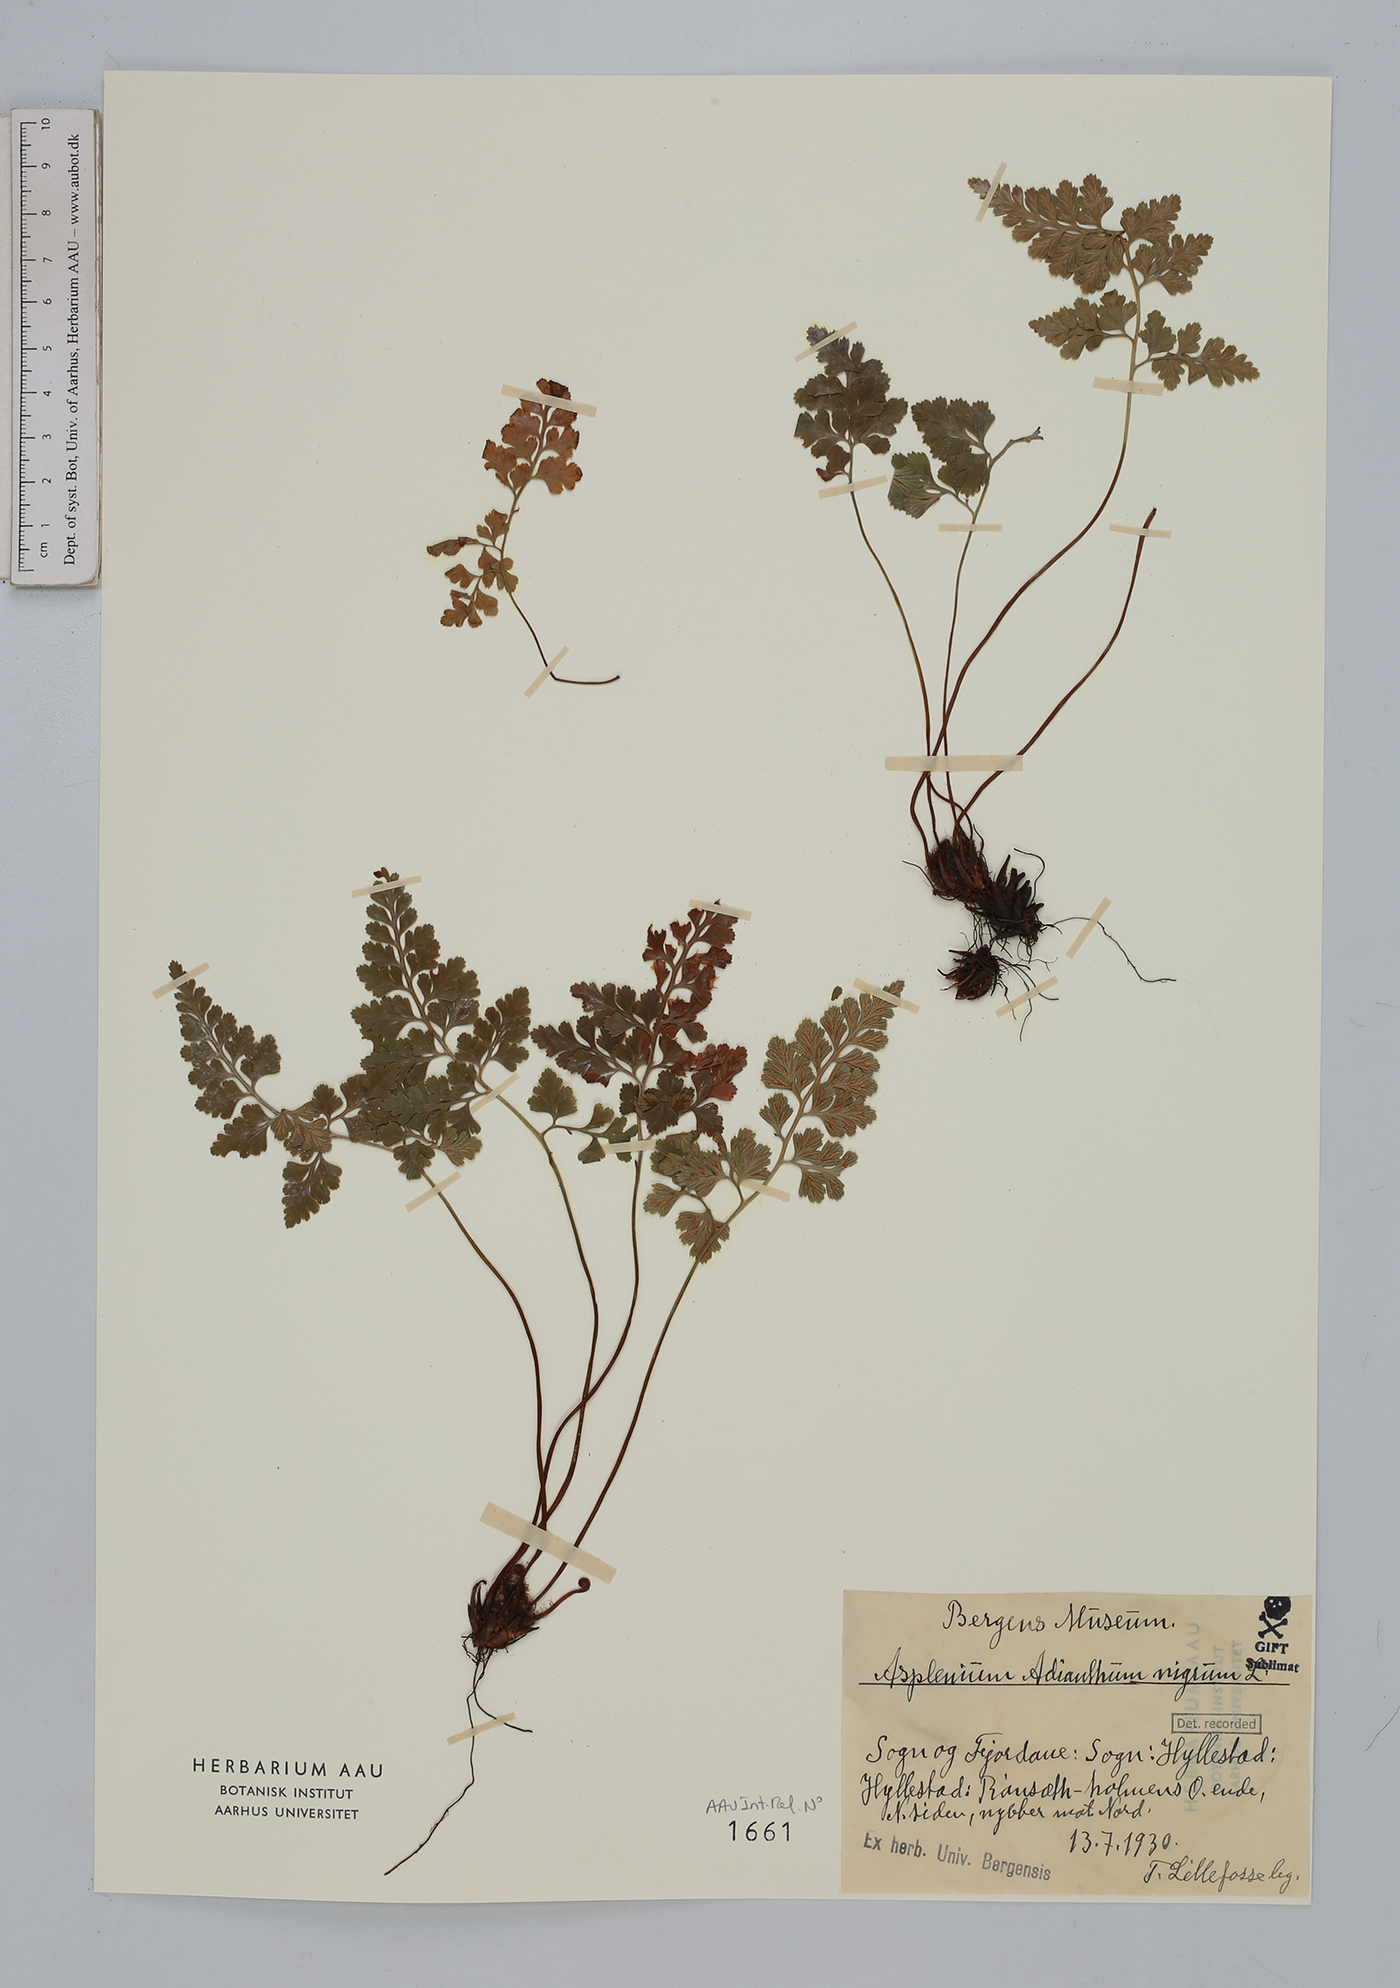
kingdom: Plantae
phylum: Tracheophyta
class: Polypodiopsida
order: Polypodiales
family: Aspleniaceae
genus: Asplenium
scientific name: Asplenium adiantum-nigrum
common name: Black spleenwort
